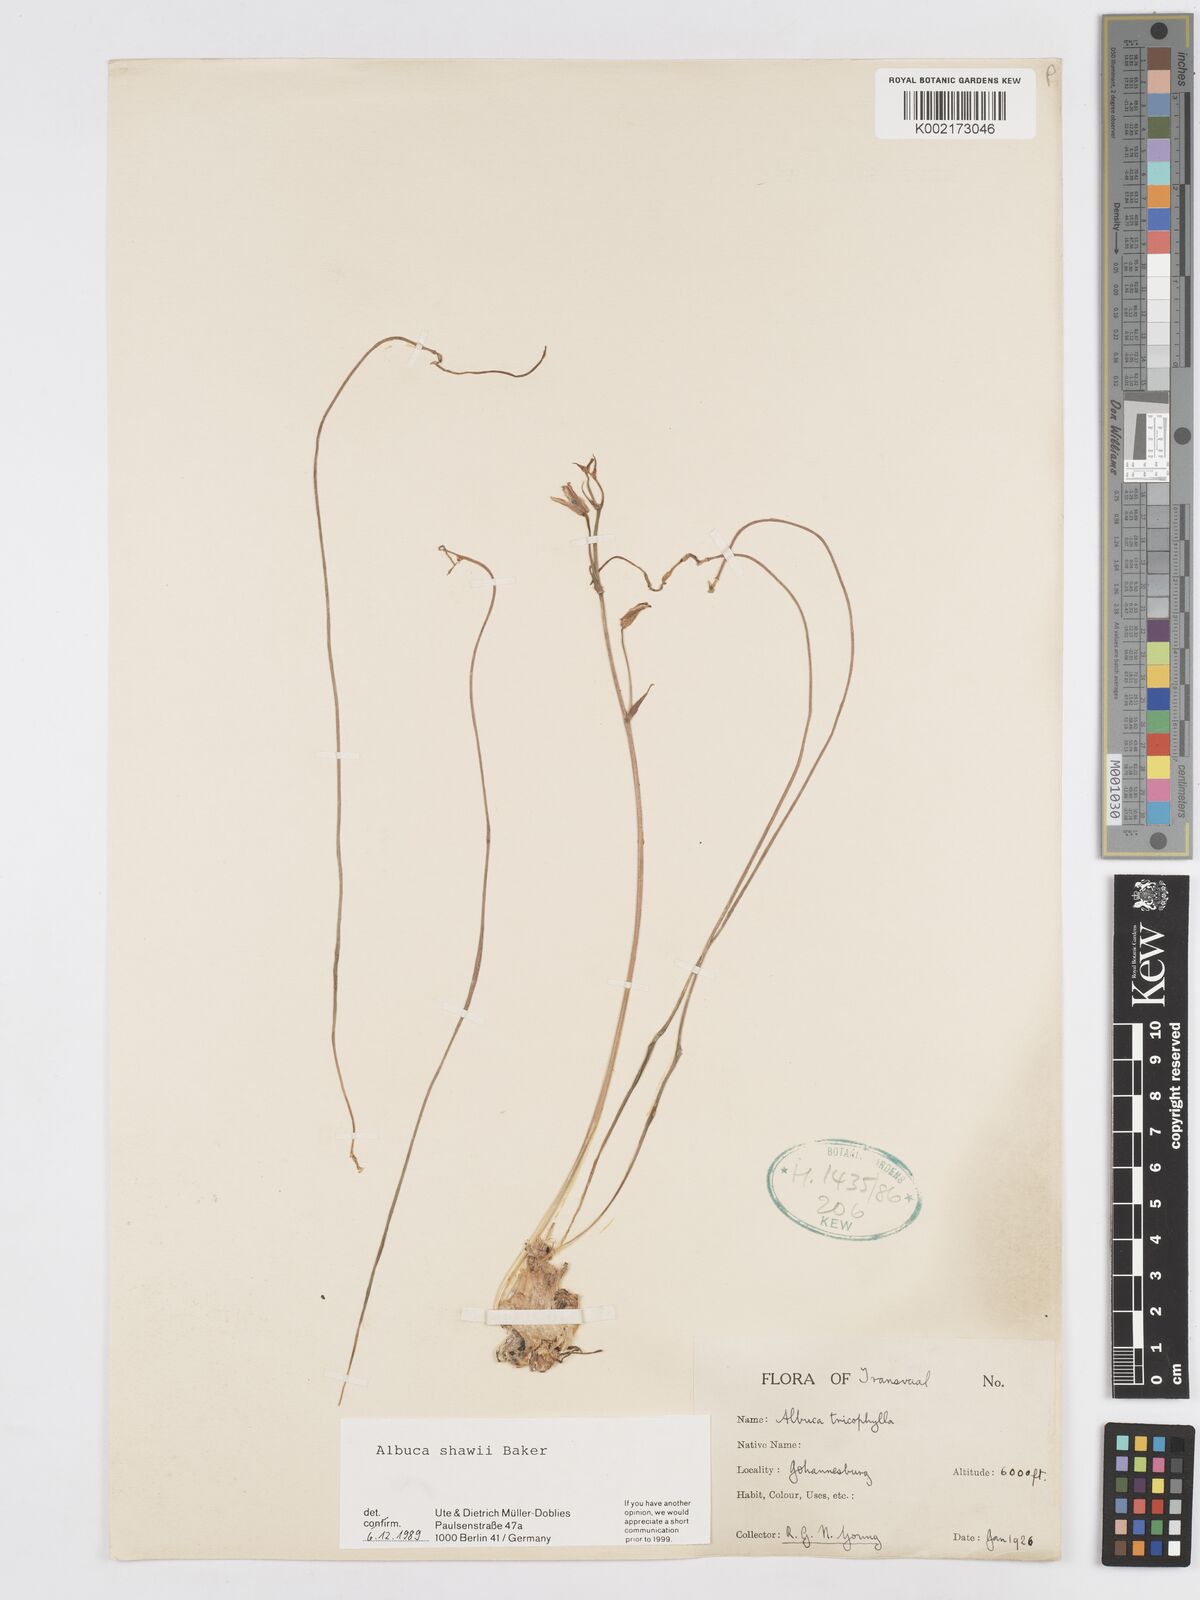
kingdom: Plantae
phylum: Tracheophyta
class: Liliopsida
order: Asparagales
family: Asparagaceae
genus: Albuca
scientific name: Albuca shawii
